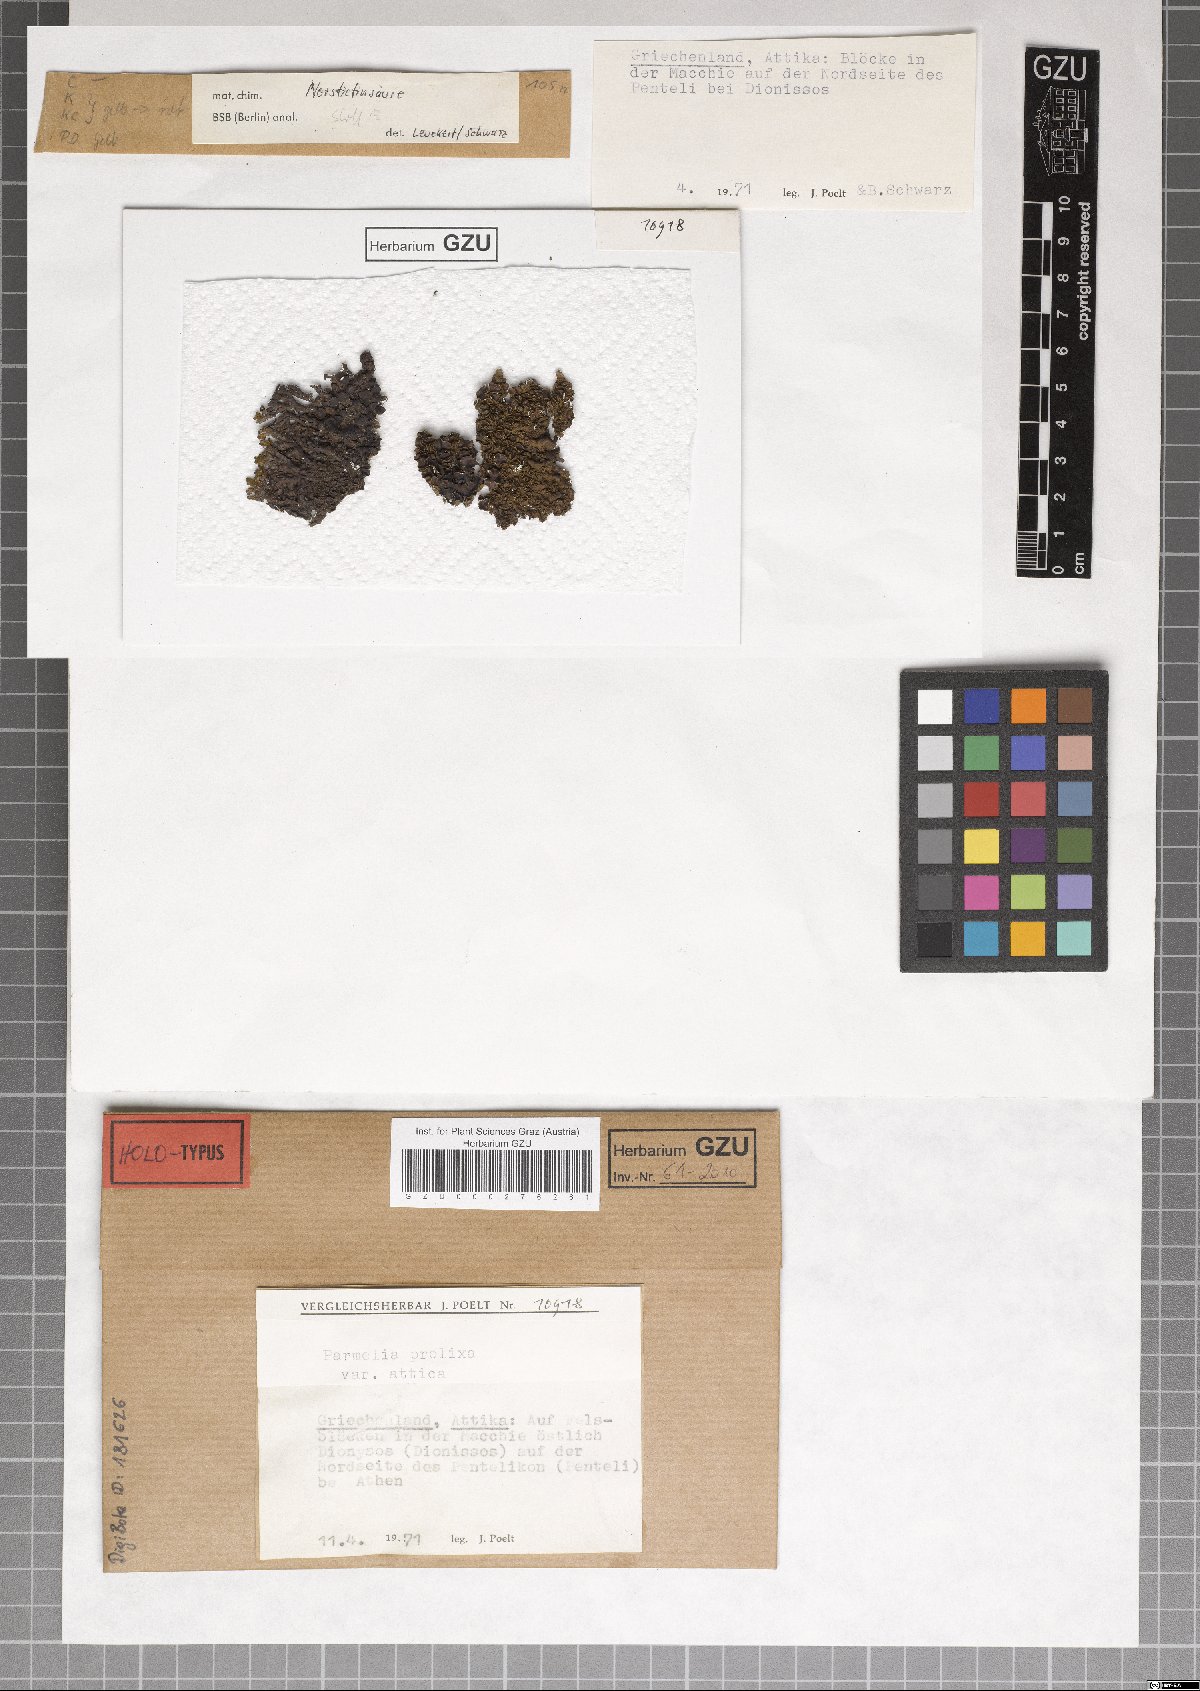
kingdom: Fungi
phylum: Ascomycota
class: Lecanoromycetes
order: Lecanorales
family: Parmeliaceae
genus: Parmelinella
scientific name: Parmelinella
